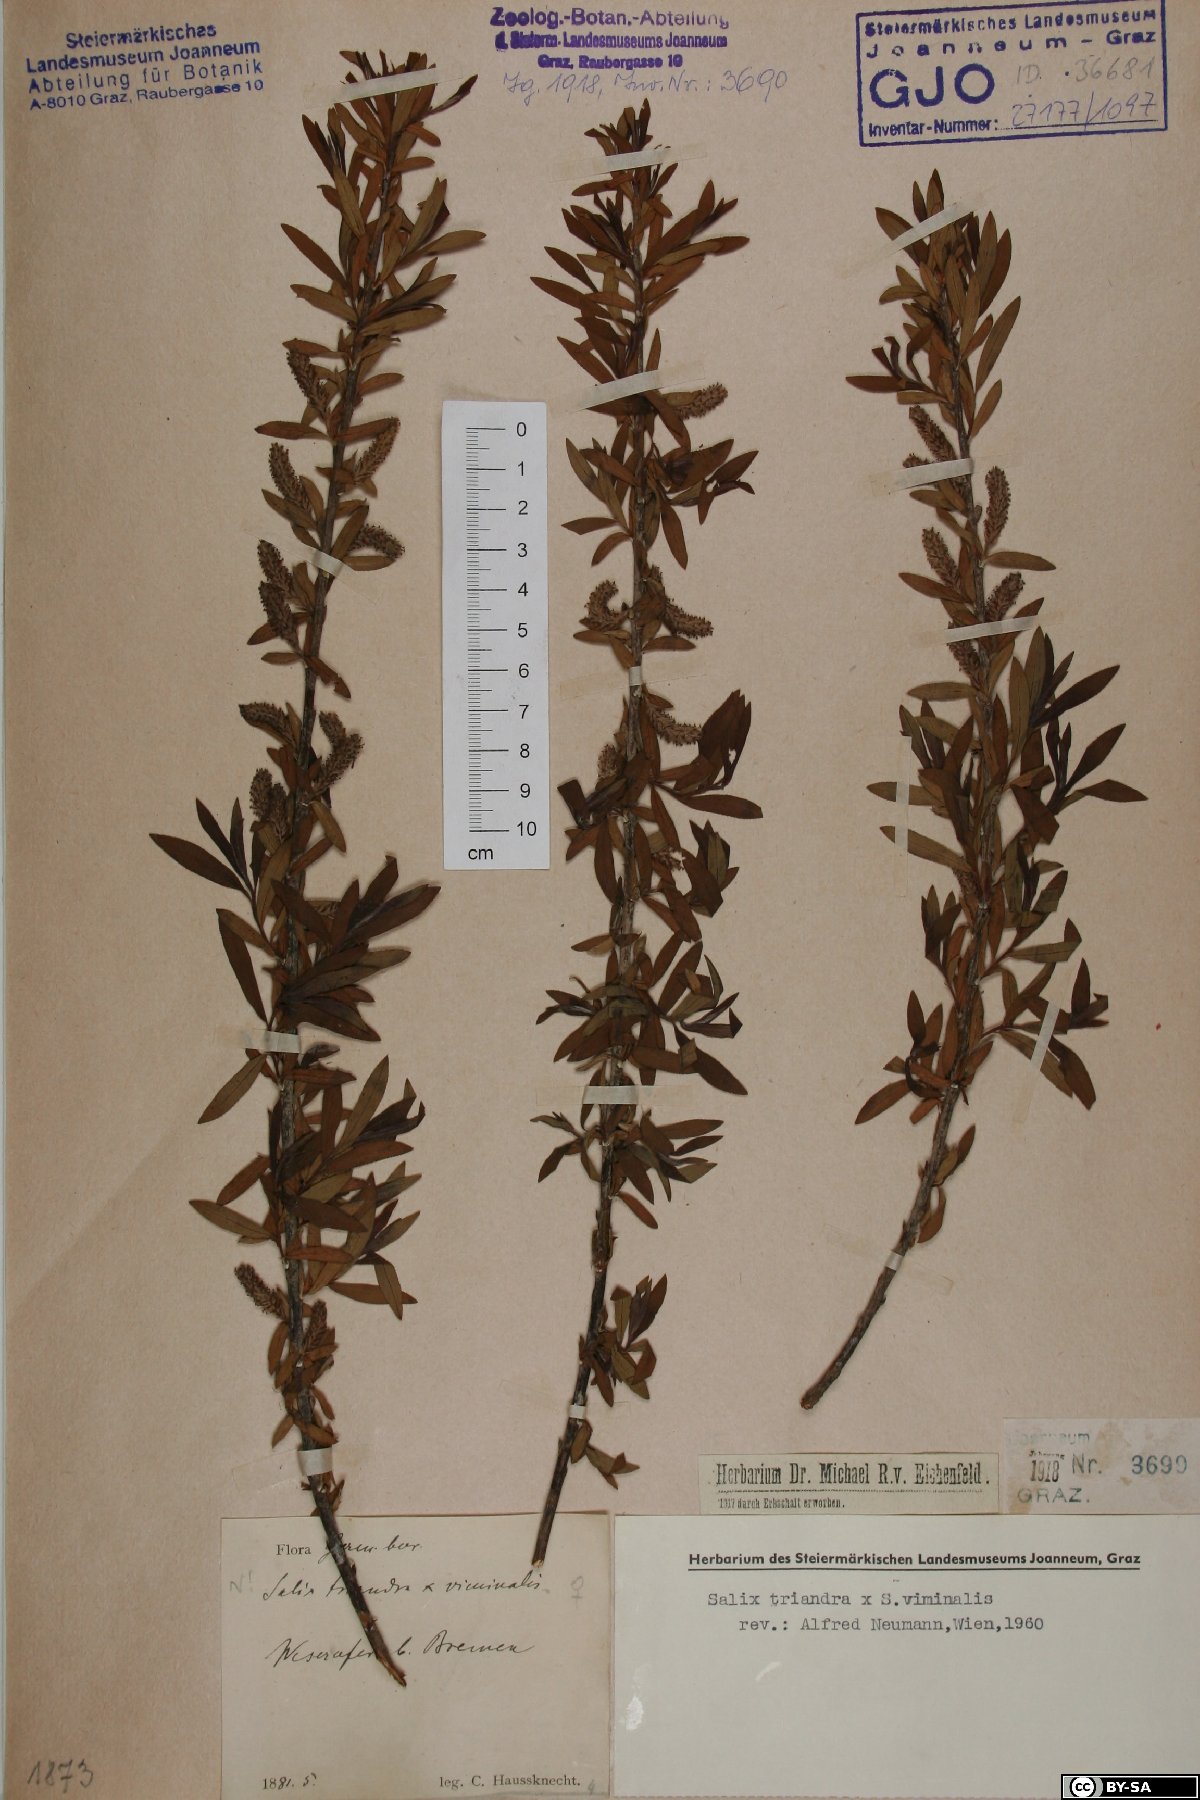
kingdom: Plantae
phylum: Tracheophyta
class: Magnoliopsida
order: Malpighiales
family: Salicaceae
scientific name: Salicaceae
